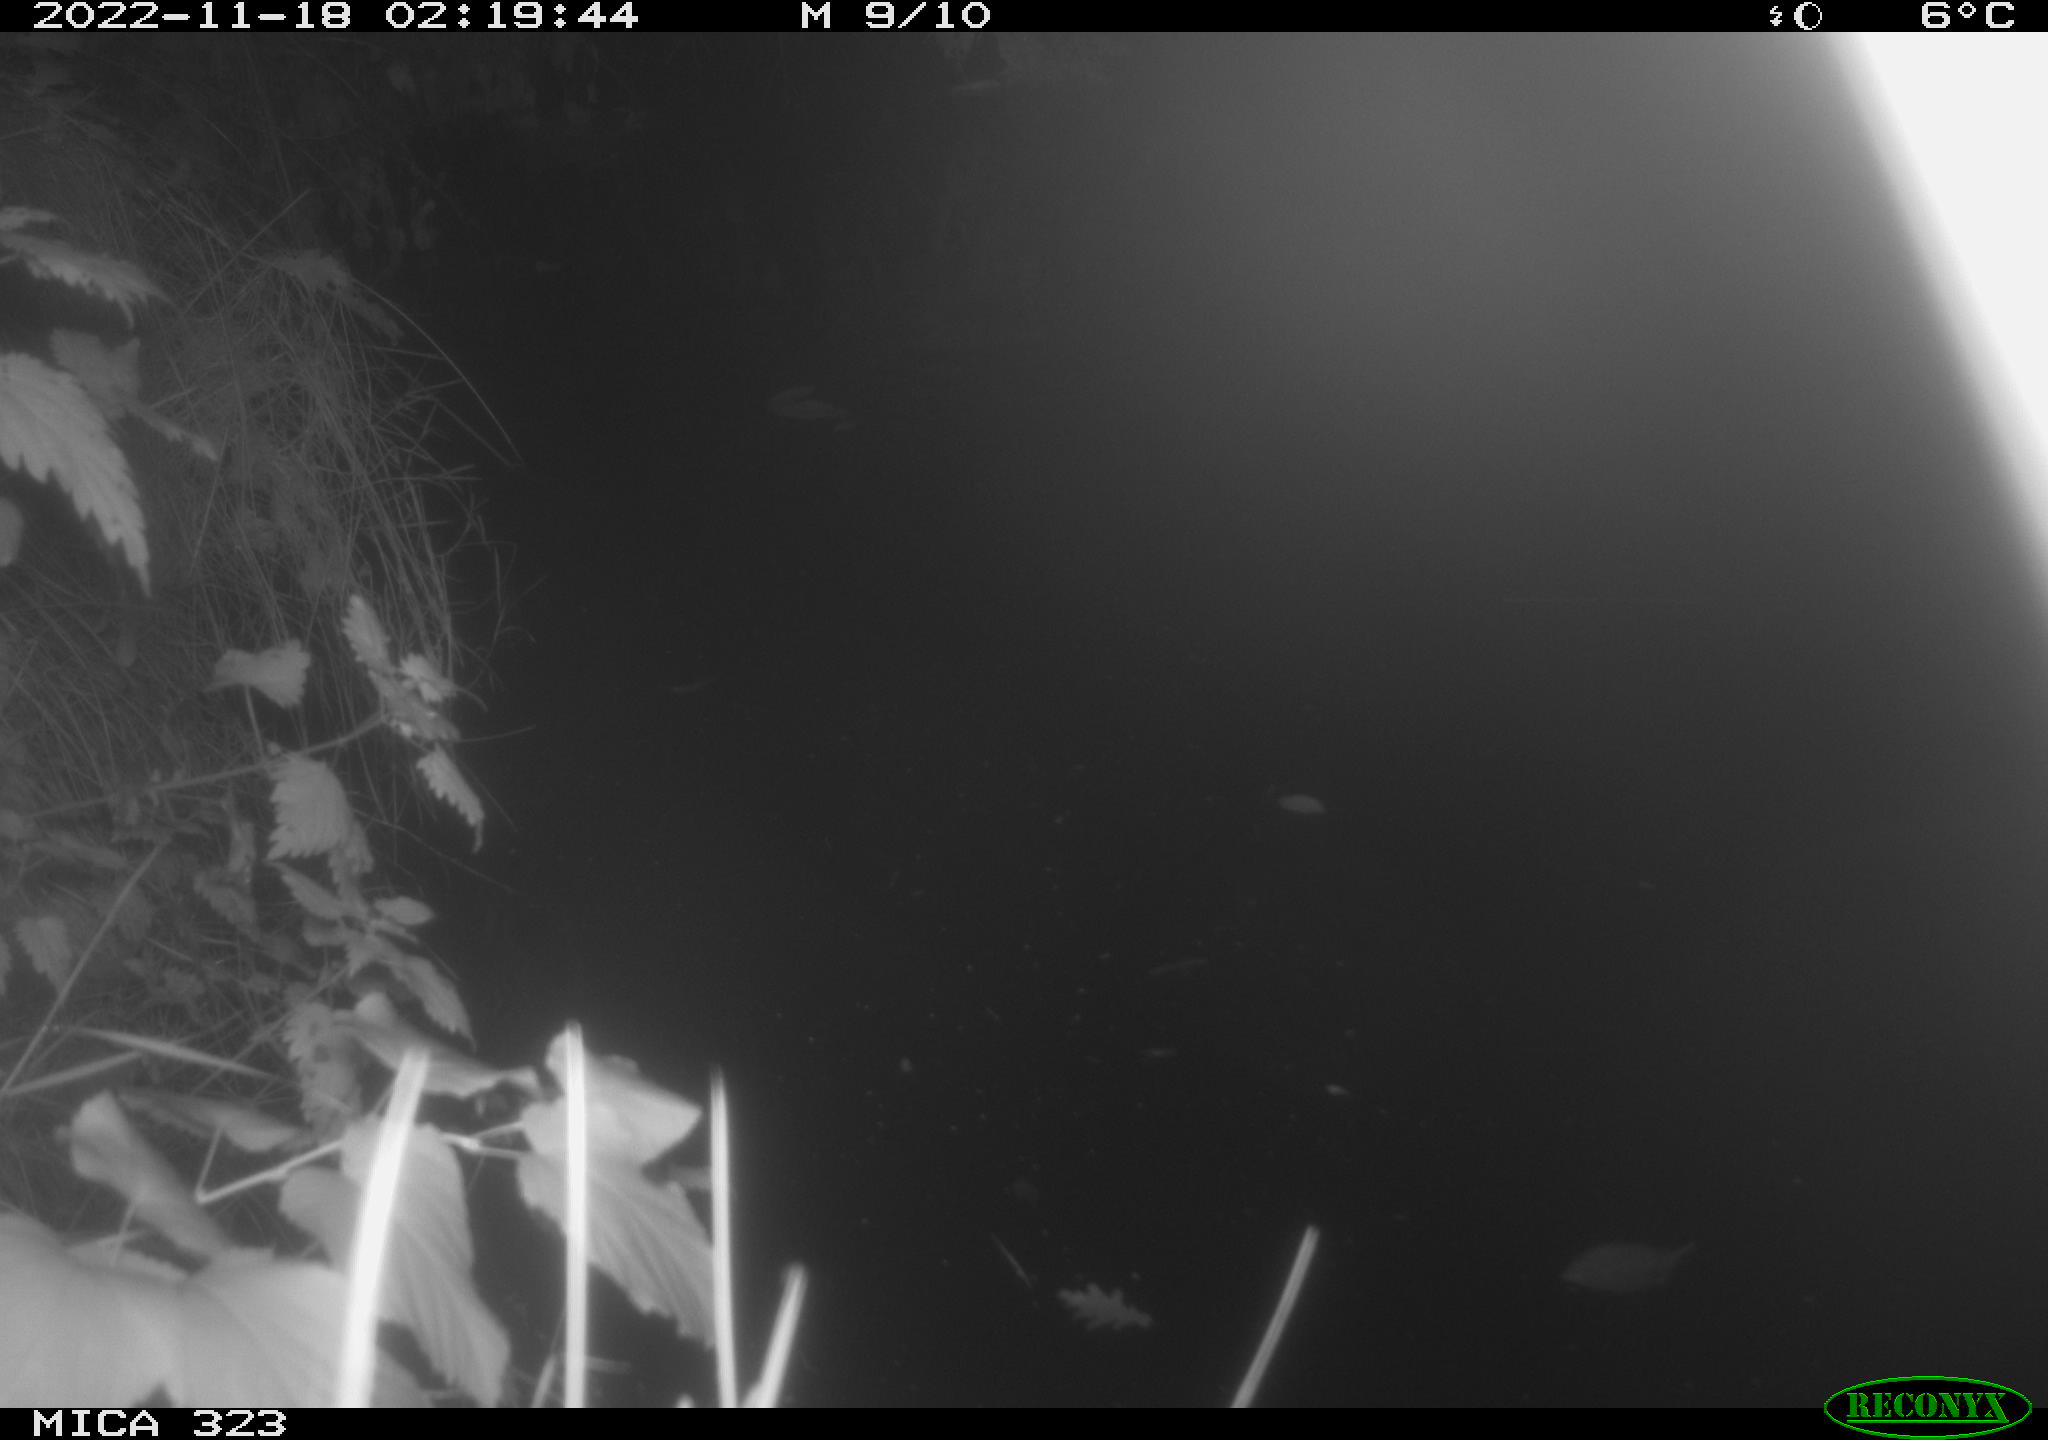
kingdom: Animalia
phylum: Chordata
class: Mammalia
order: Rodentia
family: Cricetidae
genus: Ondatra
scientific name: Ondatra zibethicus
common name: Muskrat
